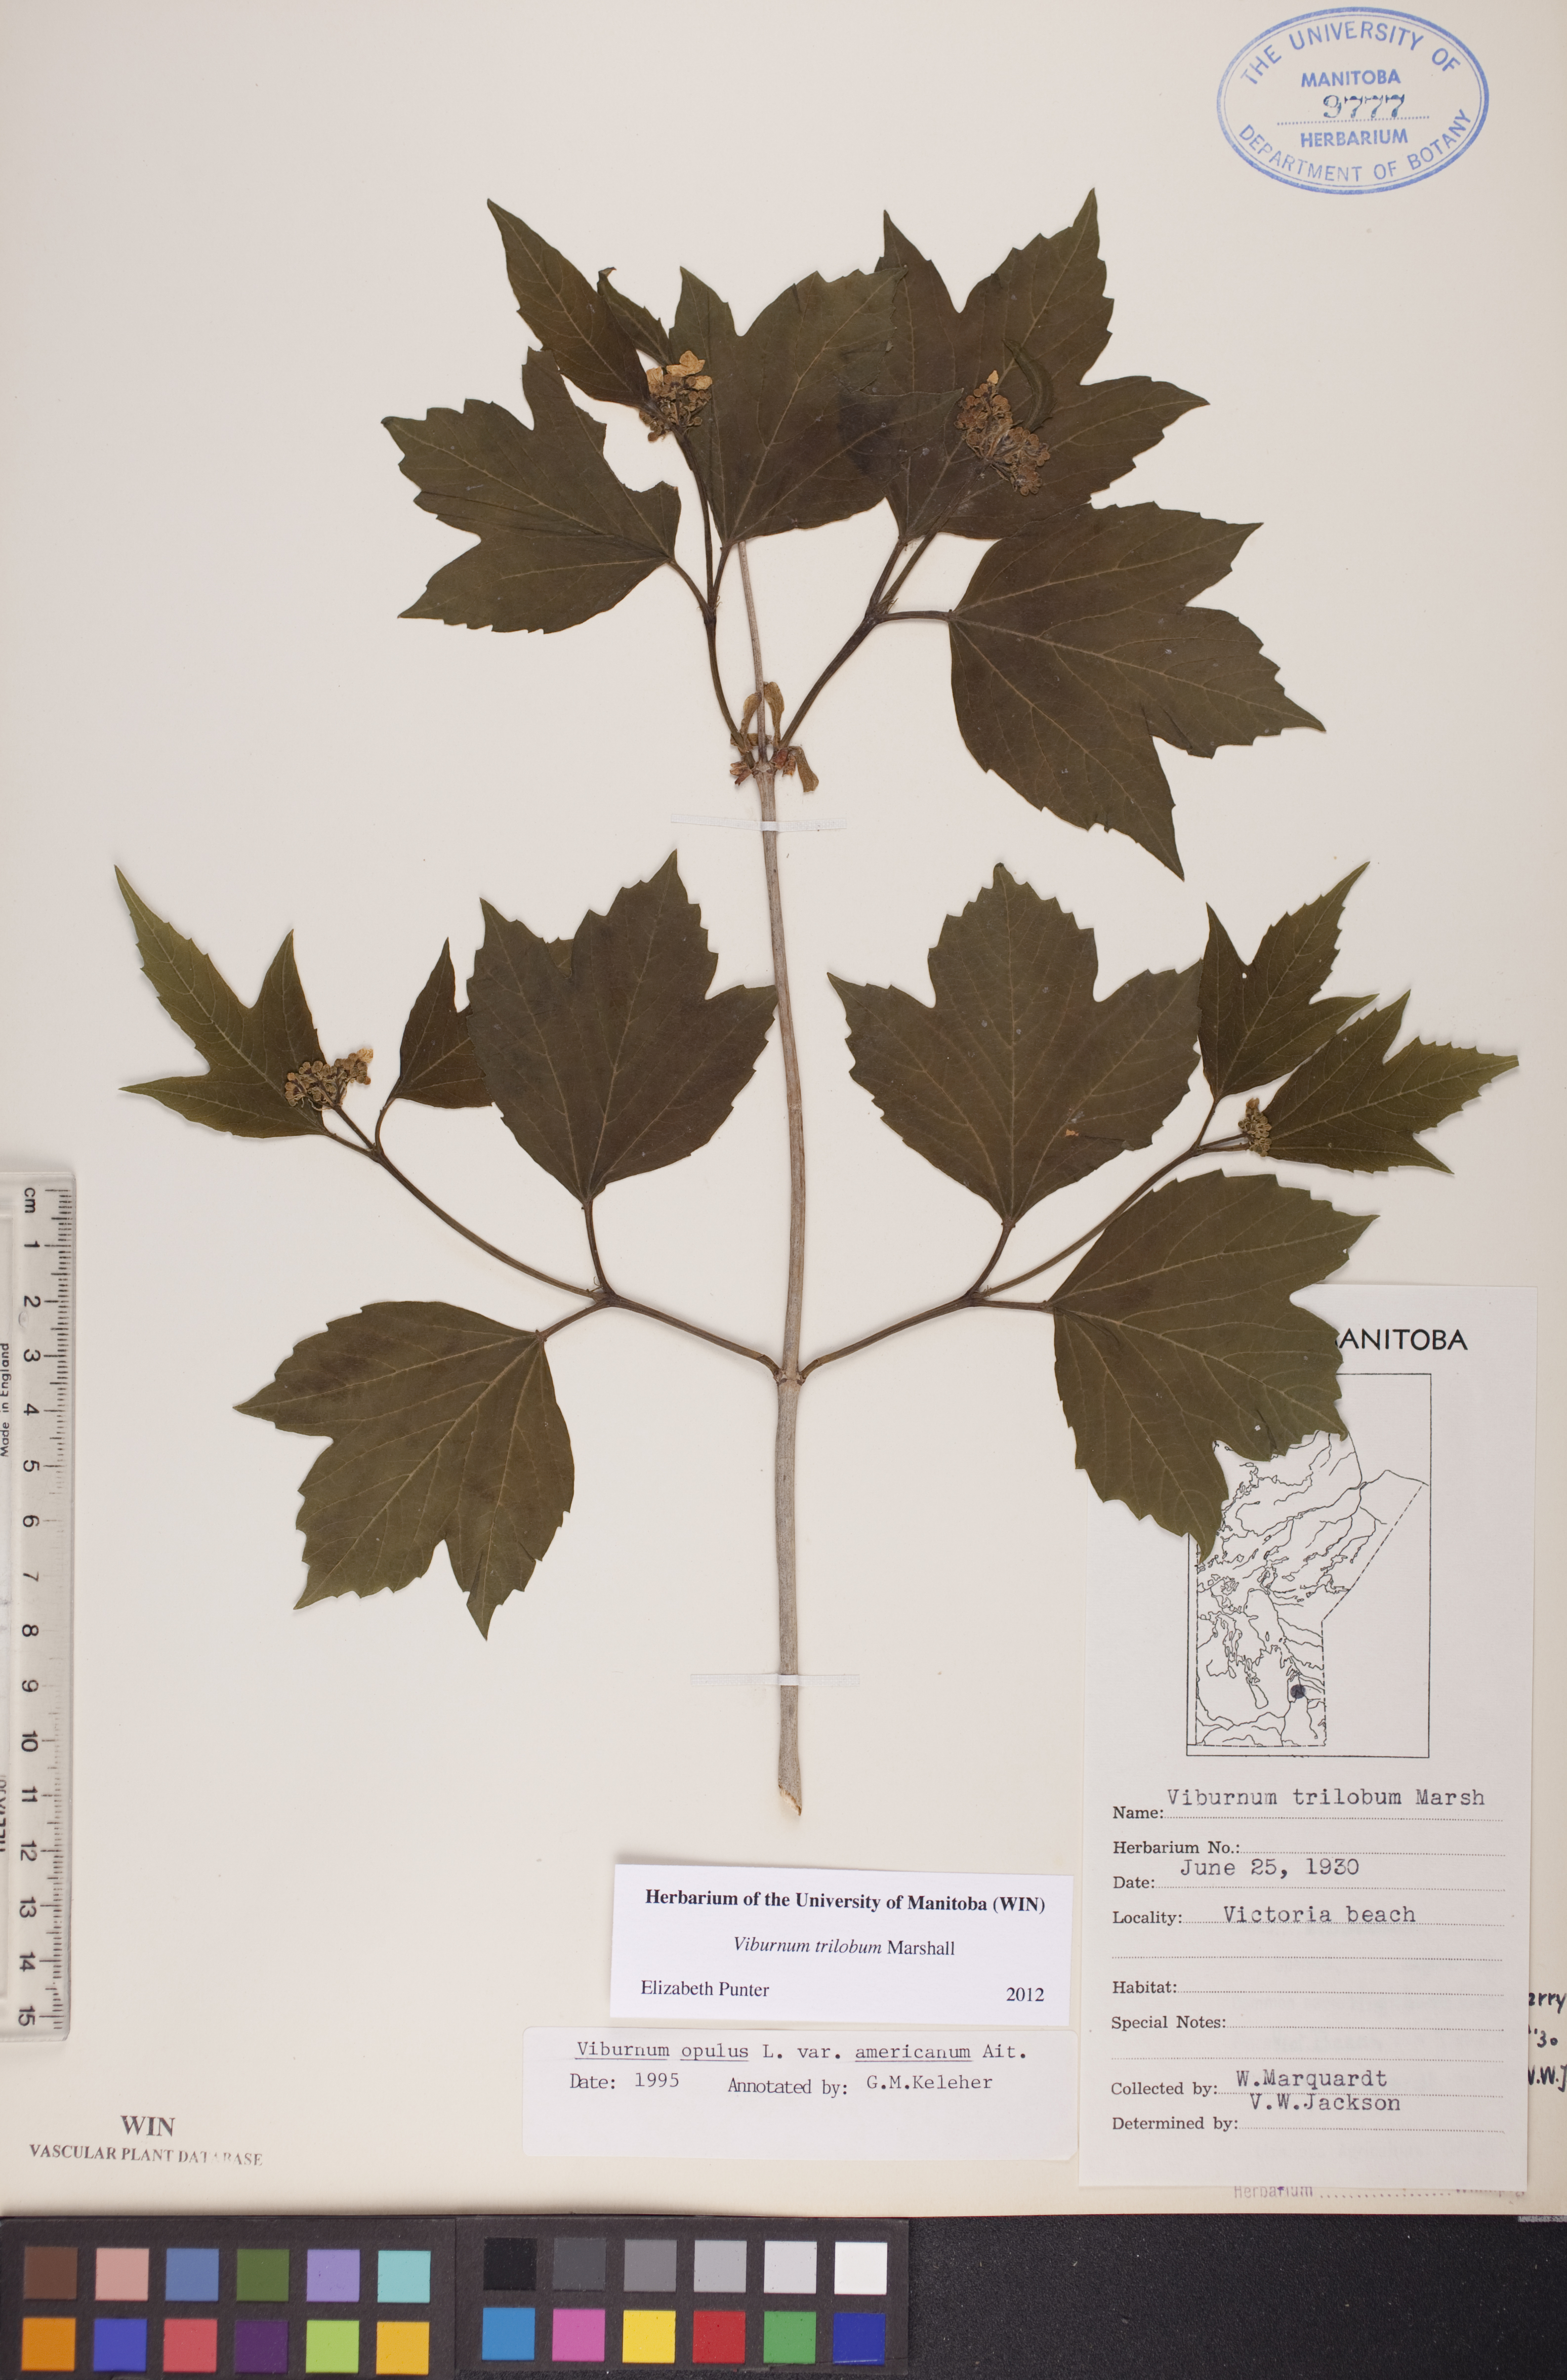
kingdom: Plantae
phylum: Tracheophyta
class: Magnoliopsida
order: Dipsacales
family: Viburnaceae
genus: Viburnum
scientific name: Viburnum trilobum
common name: American cranberrybush
